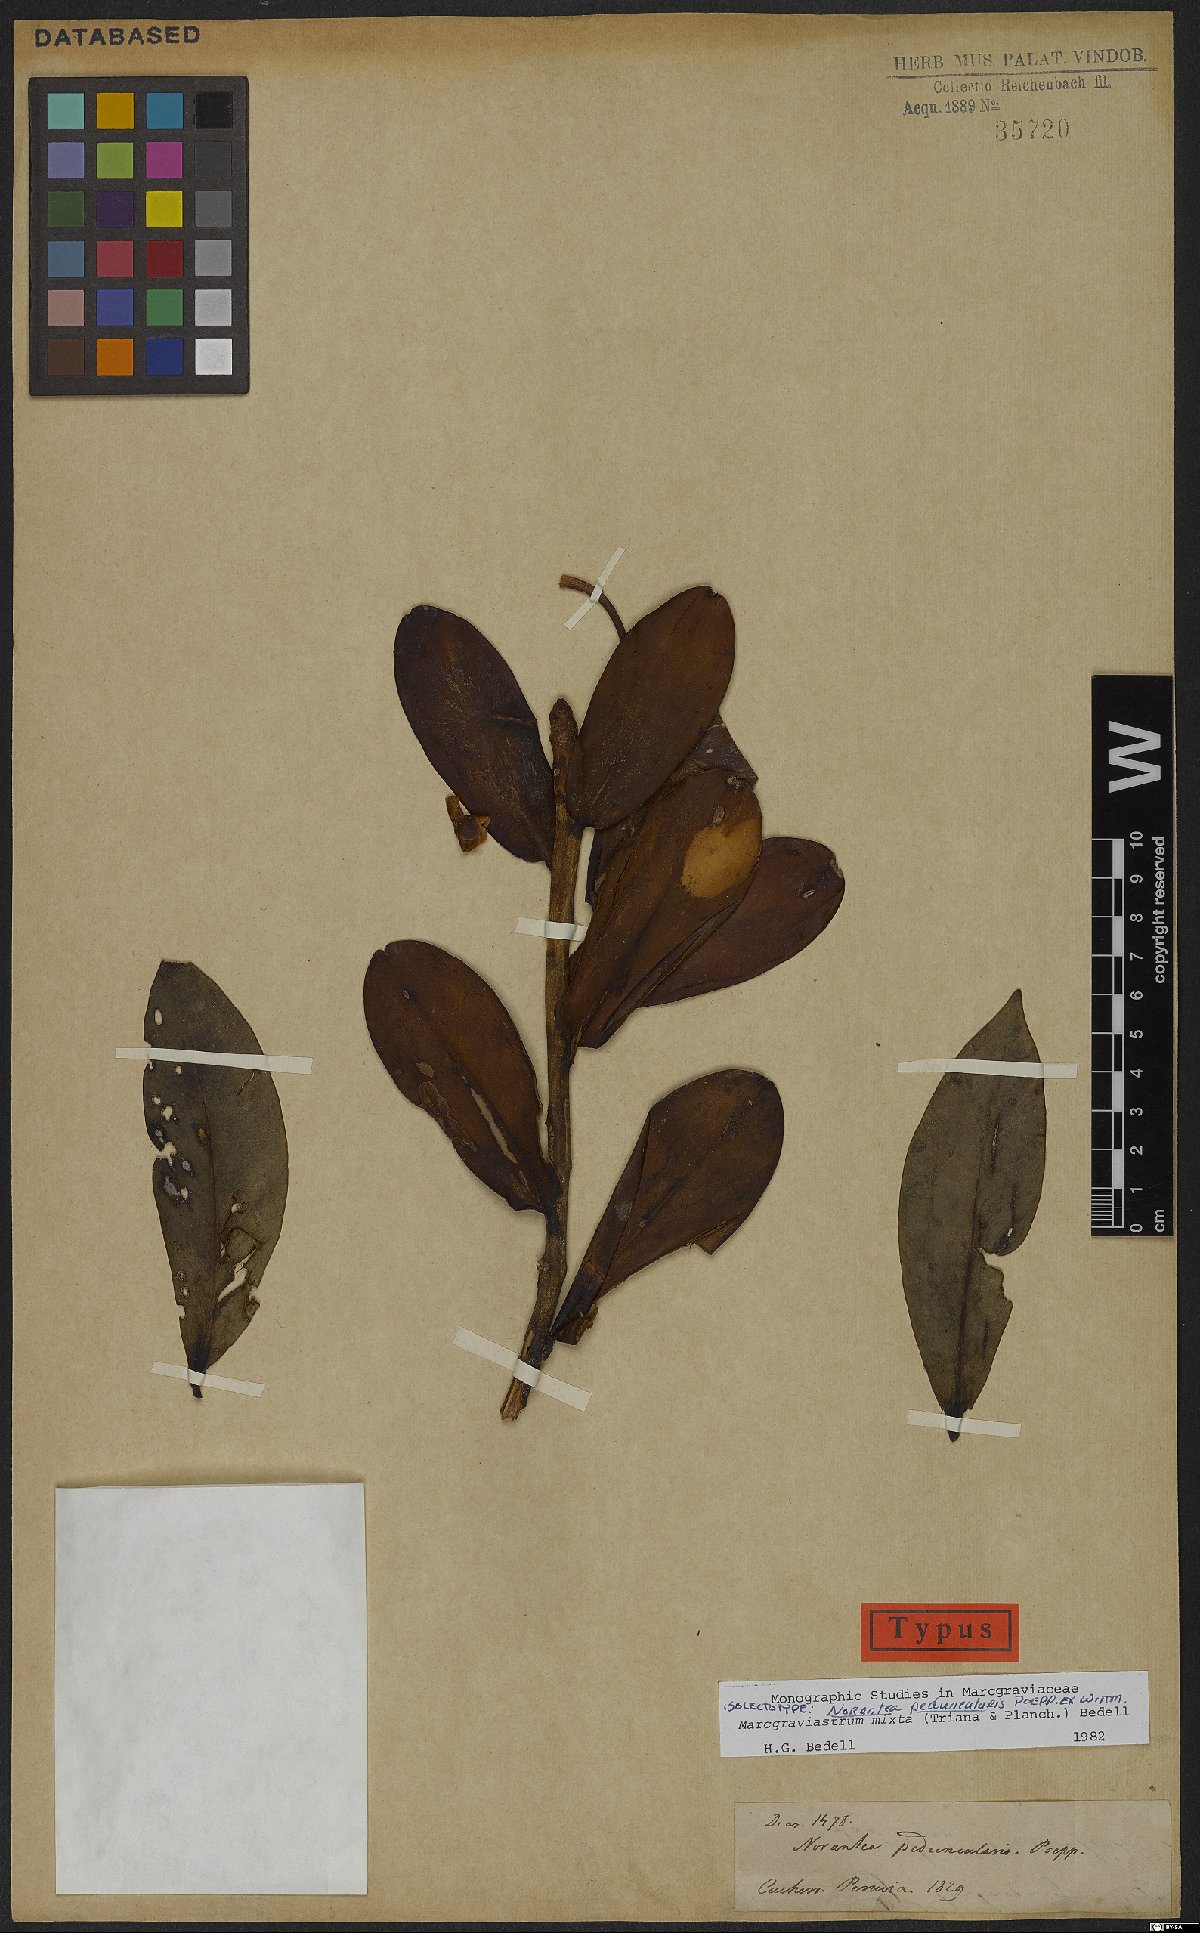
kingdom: Plantae
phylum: Tracheophyta
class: Magnoliopsida
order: Ericales
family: Marcgraviaceae
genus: Marcgraviastrum
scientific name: Marcgraviastrum mixtum
